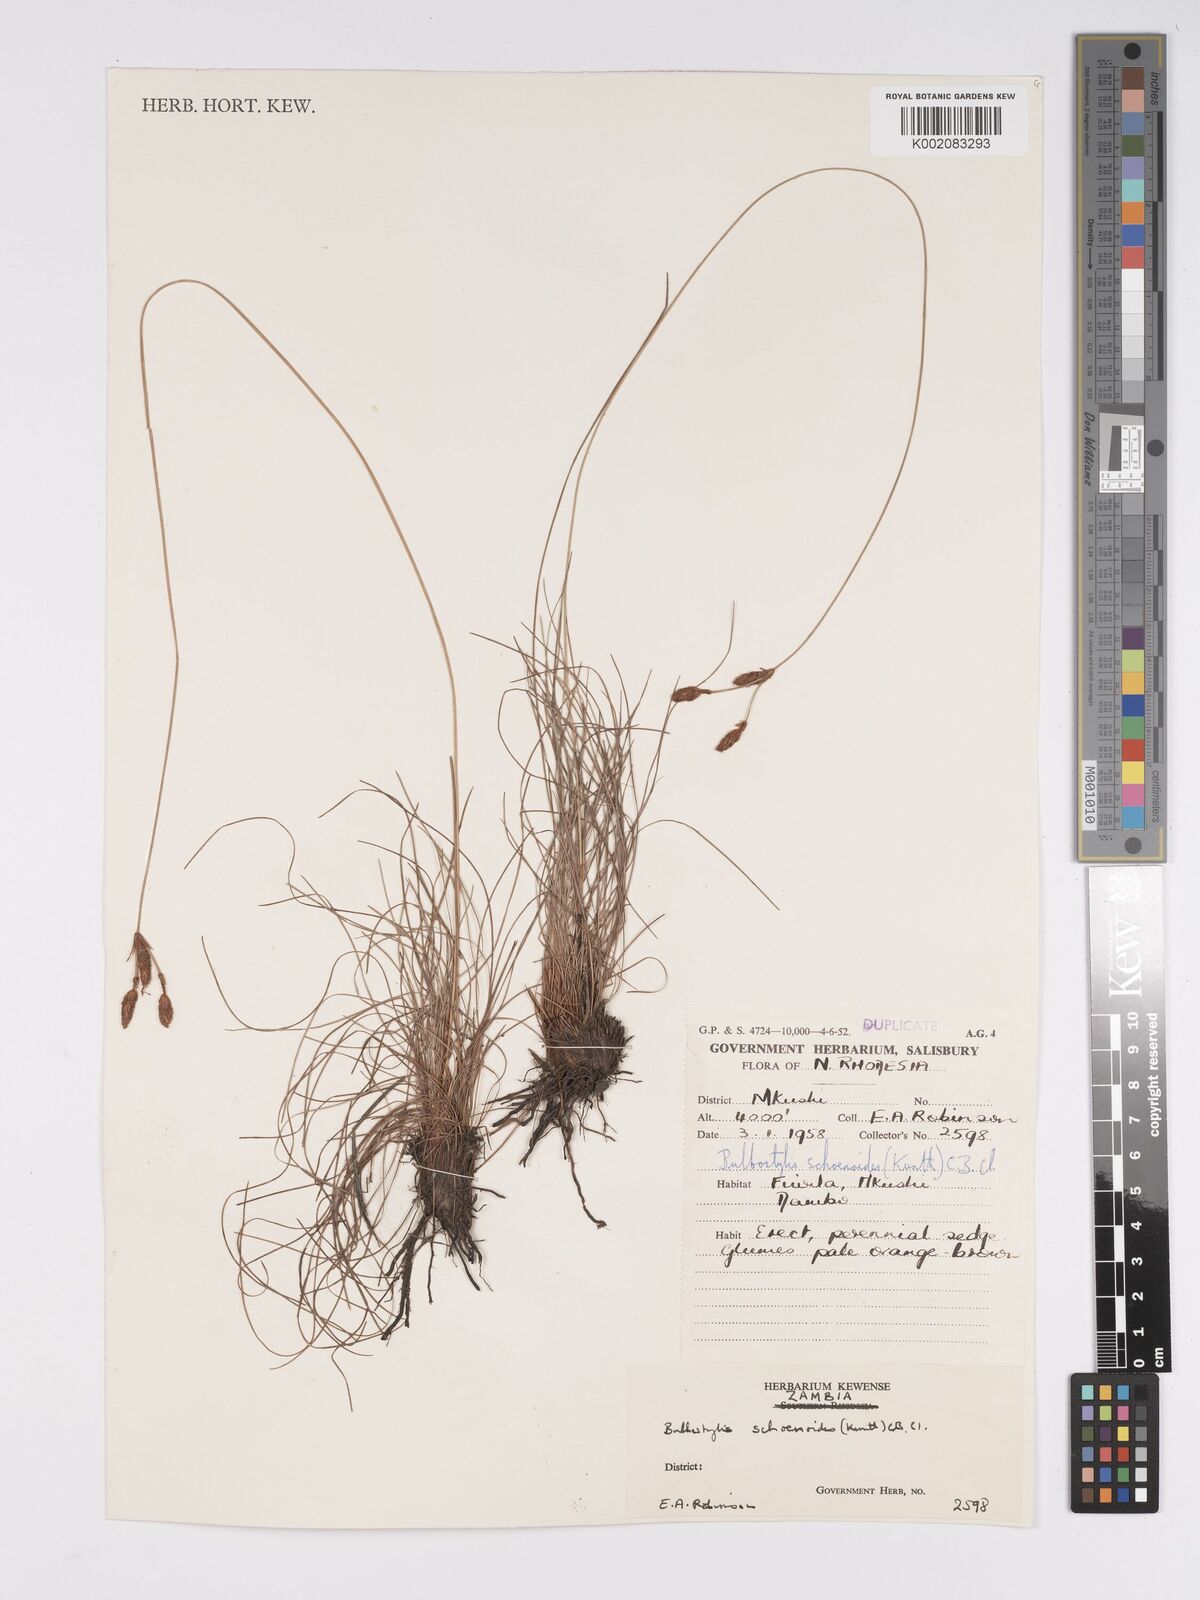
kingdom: Plantae
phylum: Tracheophyta
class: Liliopsida
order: Poales
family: Cyperaceae
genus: Bulbostylis
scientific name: Bulbostylis schoenoides
